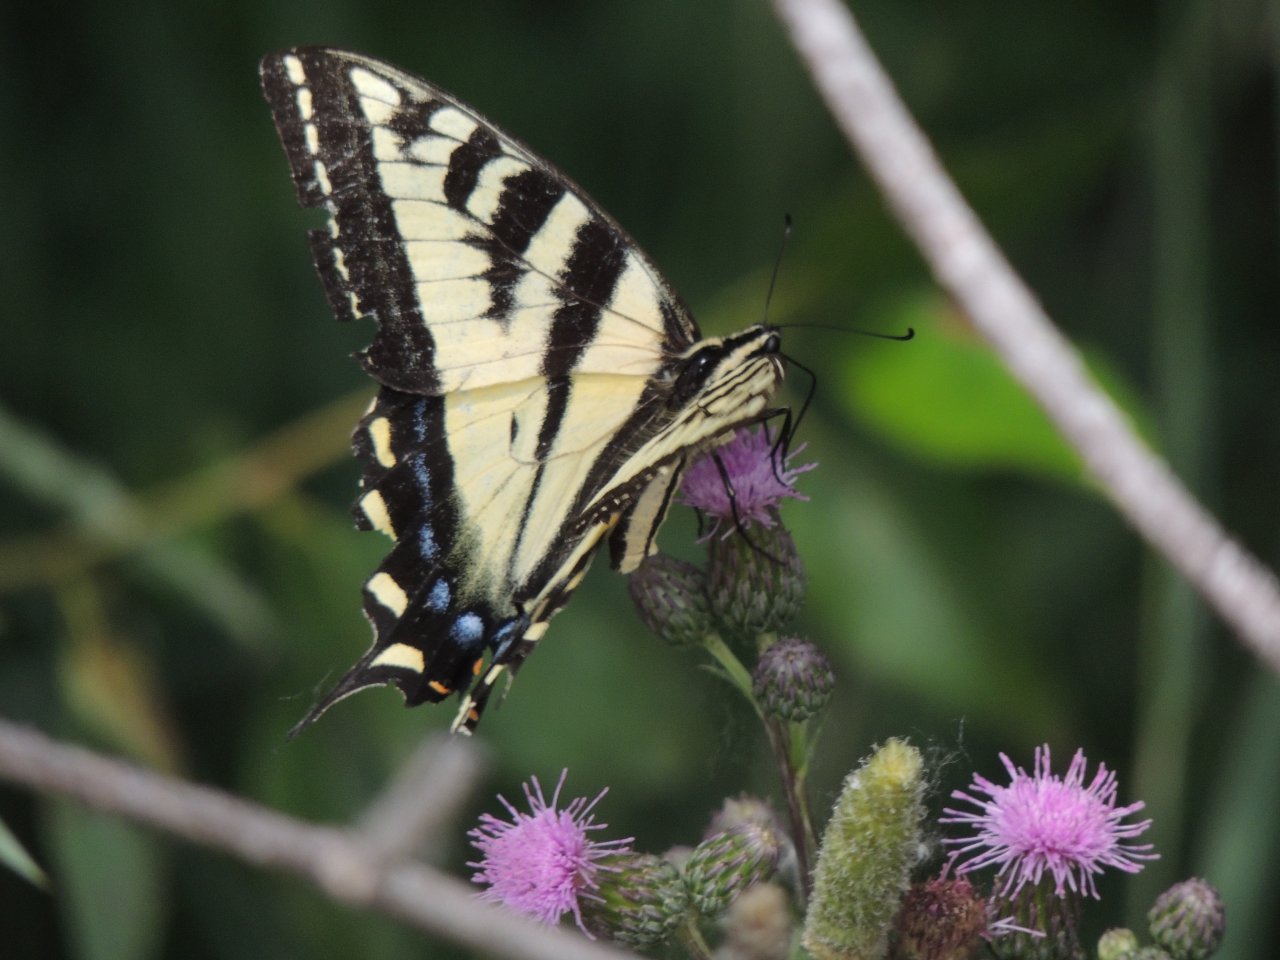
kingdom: Animalia
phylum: Arthropoda
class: Insecta
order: Lepidoptera
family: Papilionidae
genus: Pterourus
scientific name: Pterourus rutulus
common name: Western Tiger Swallowtail
